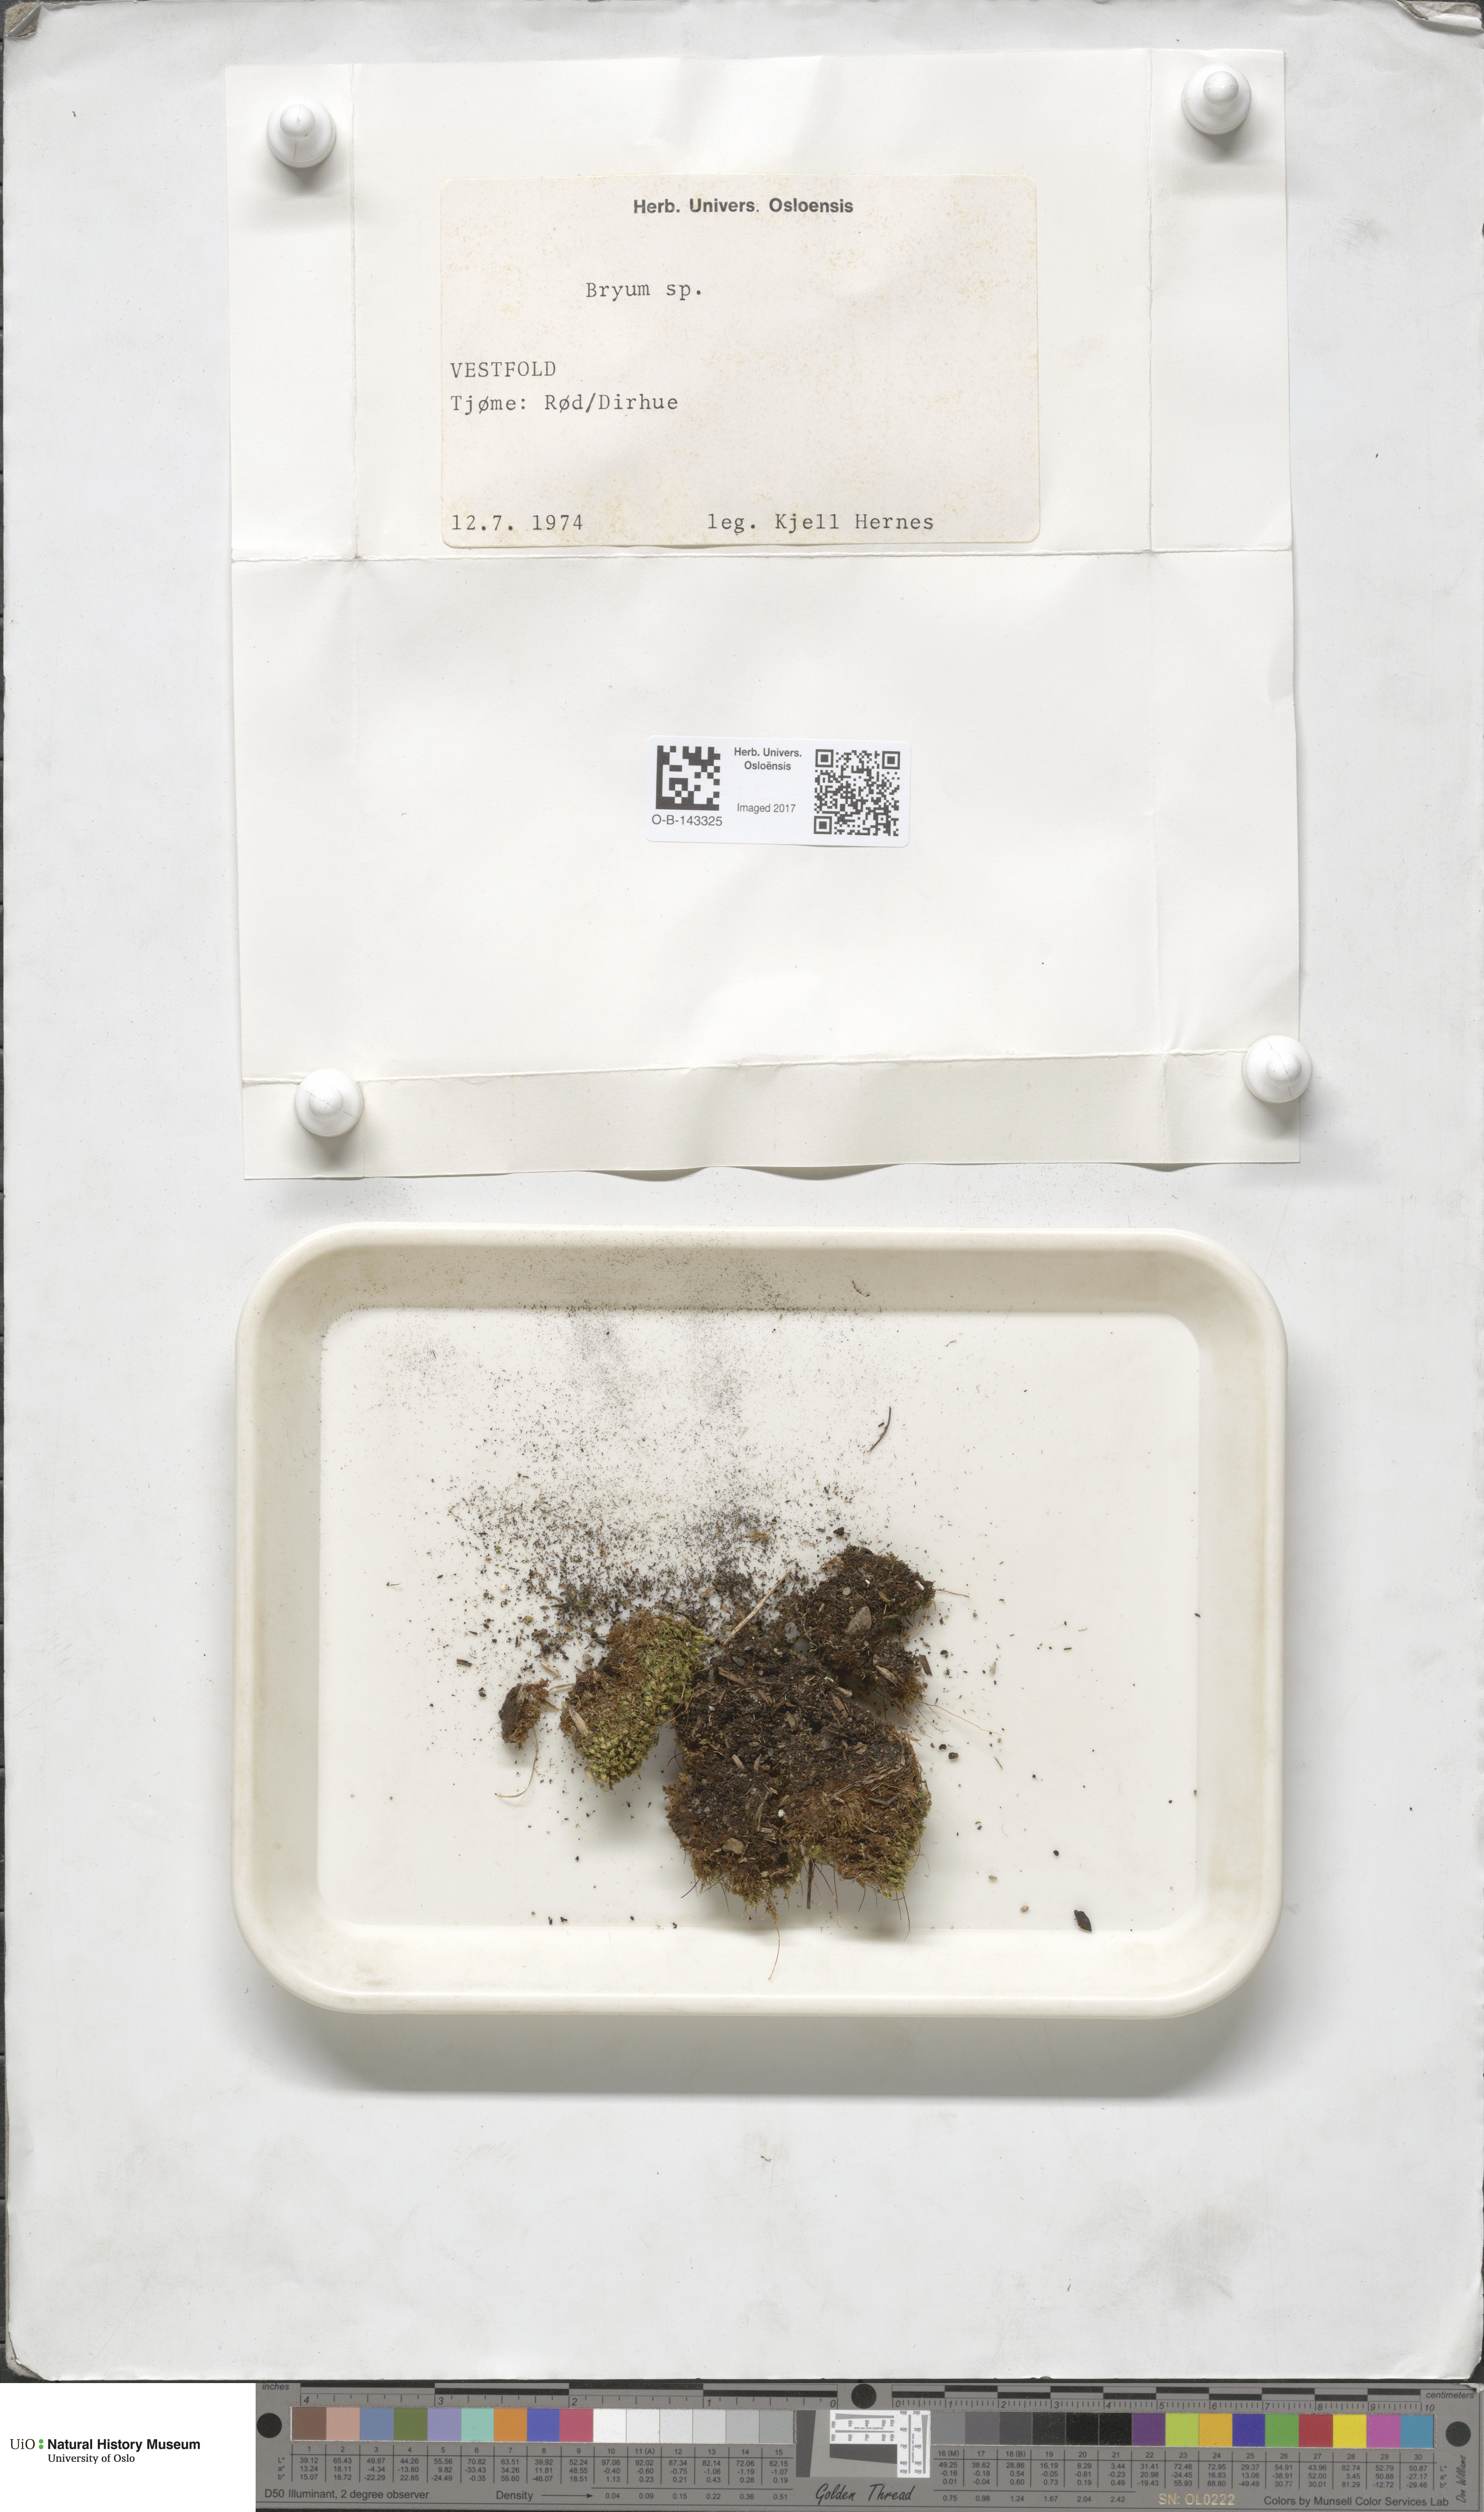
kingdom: Plantae
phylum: Bryophyta
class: Bryopsida
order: Bryales
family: Bryaceae
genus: Bryum
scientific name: Bryum
